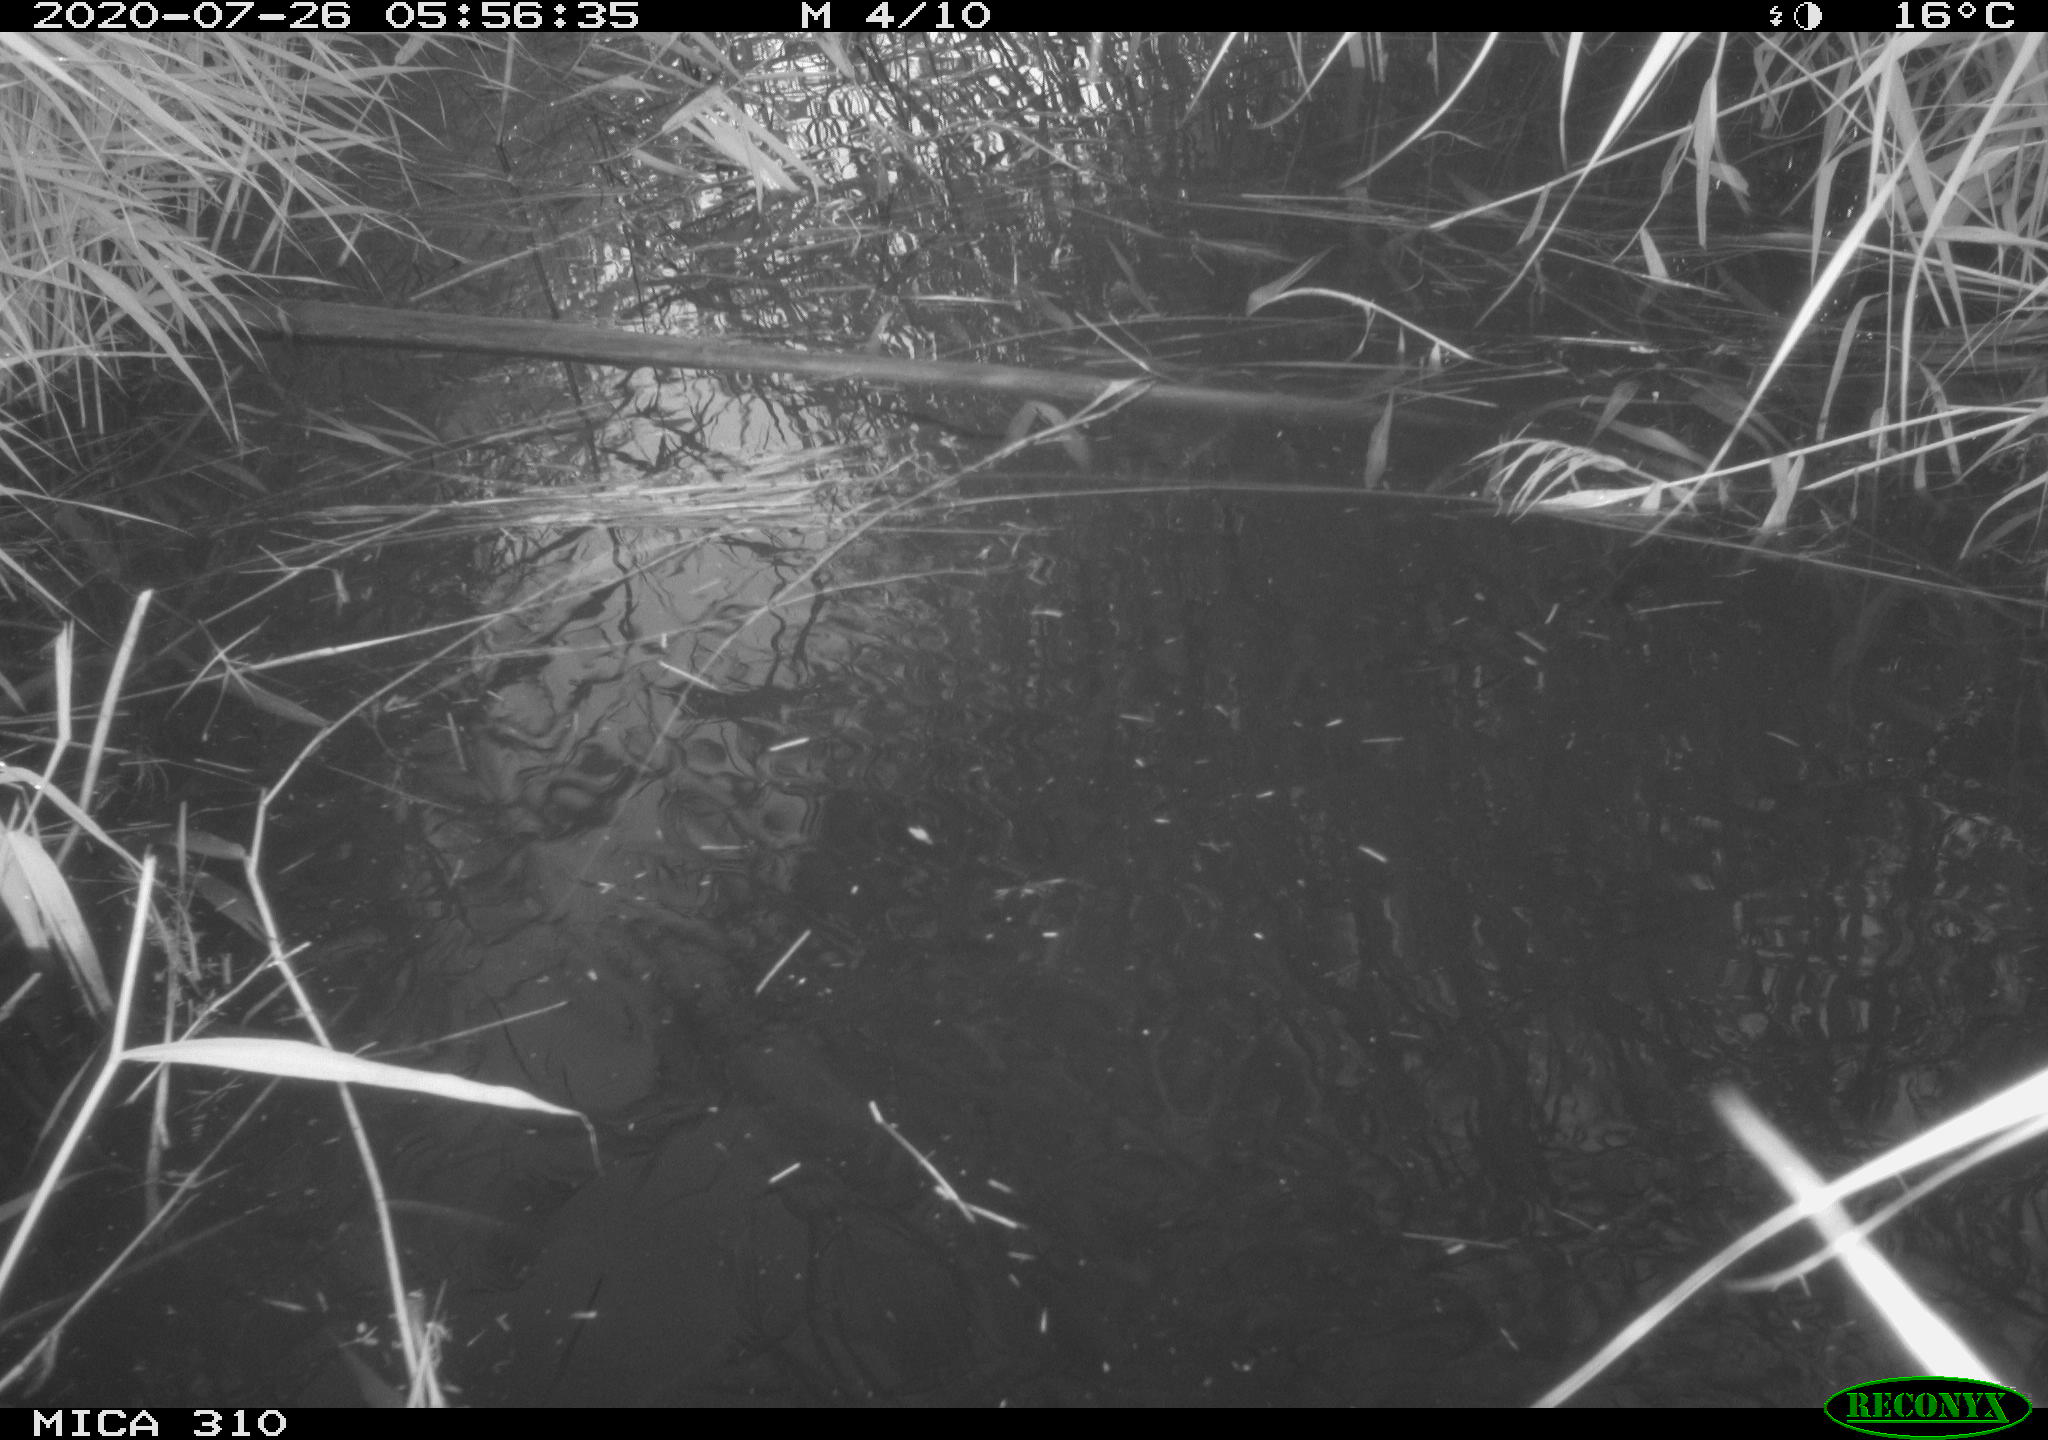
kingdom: Animalia
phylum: Chordata
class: Aves
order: Gruiformes
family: Rallidae
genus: Gallinula
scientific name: Gallinula chloropus
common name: Common moorhen
